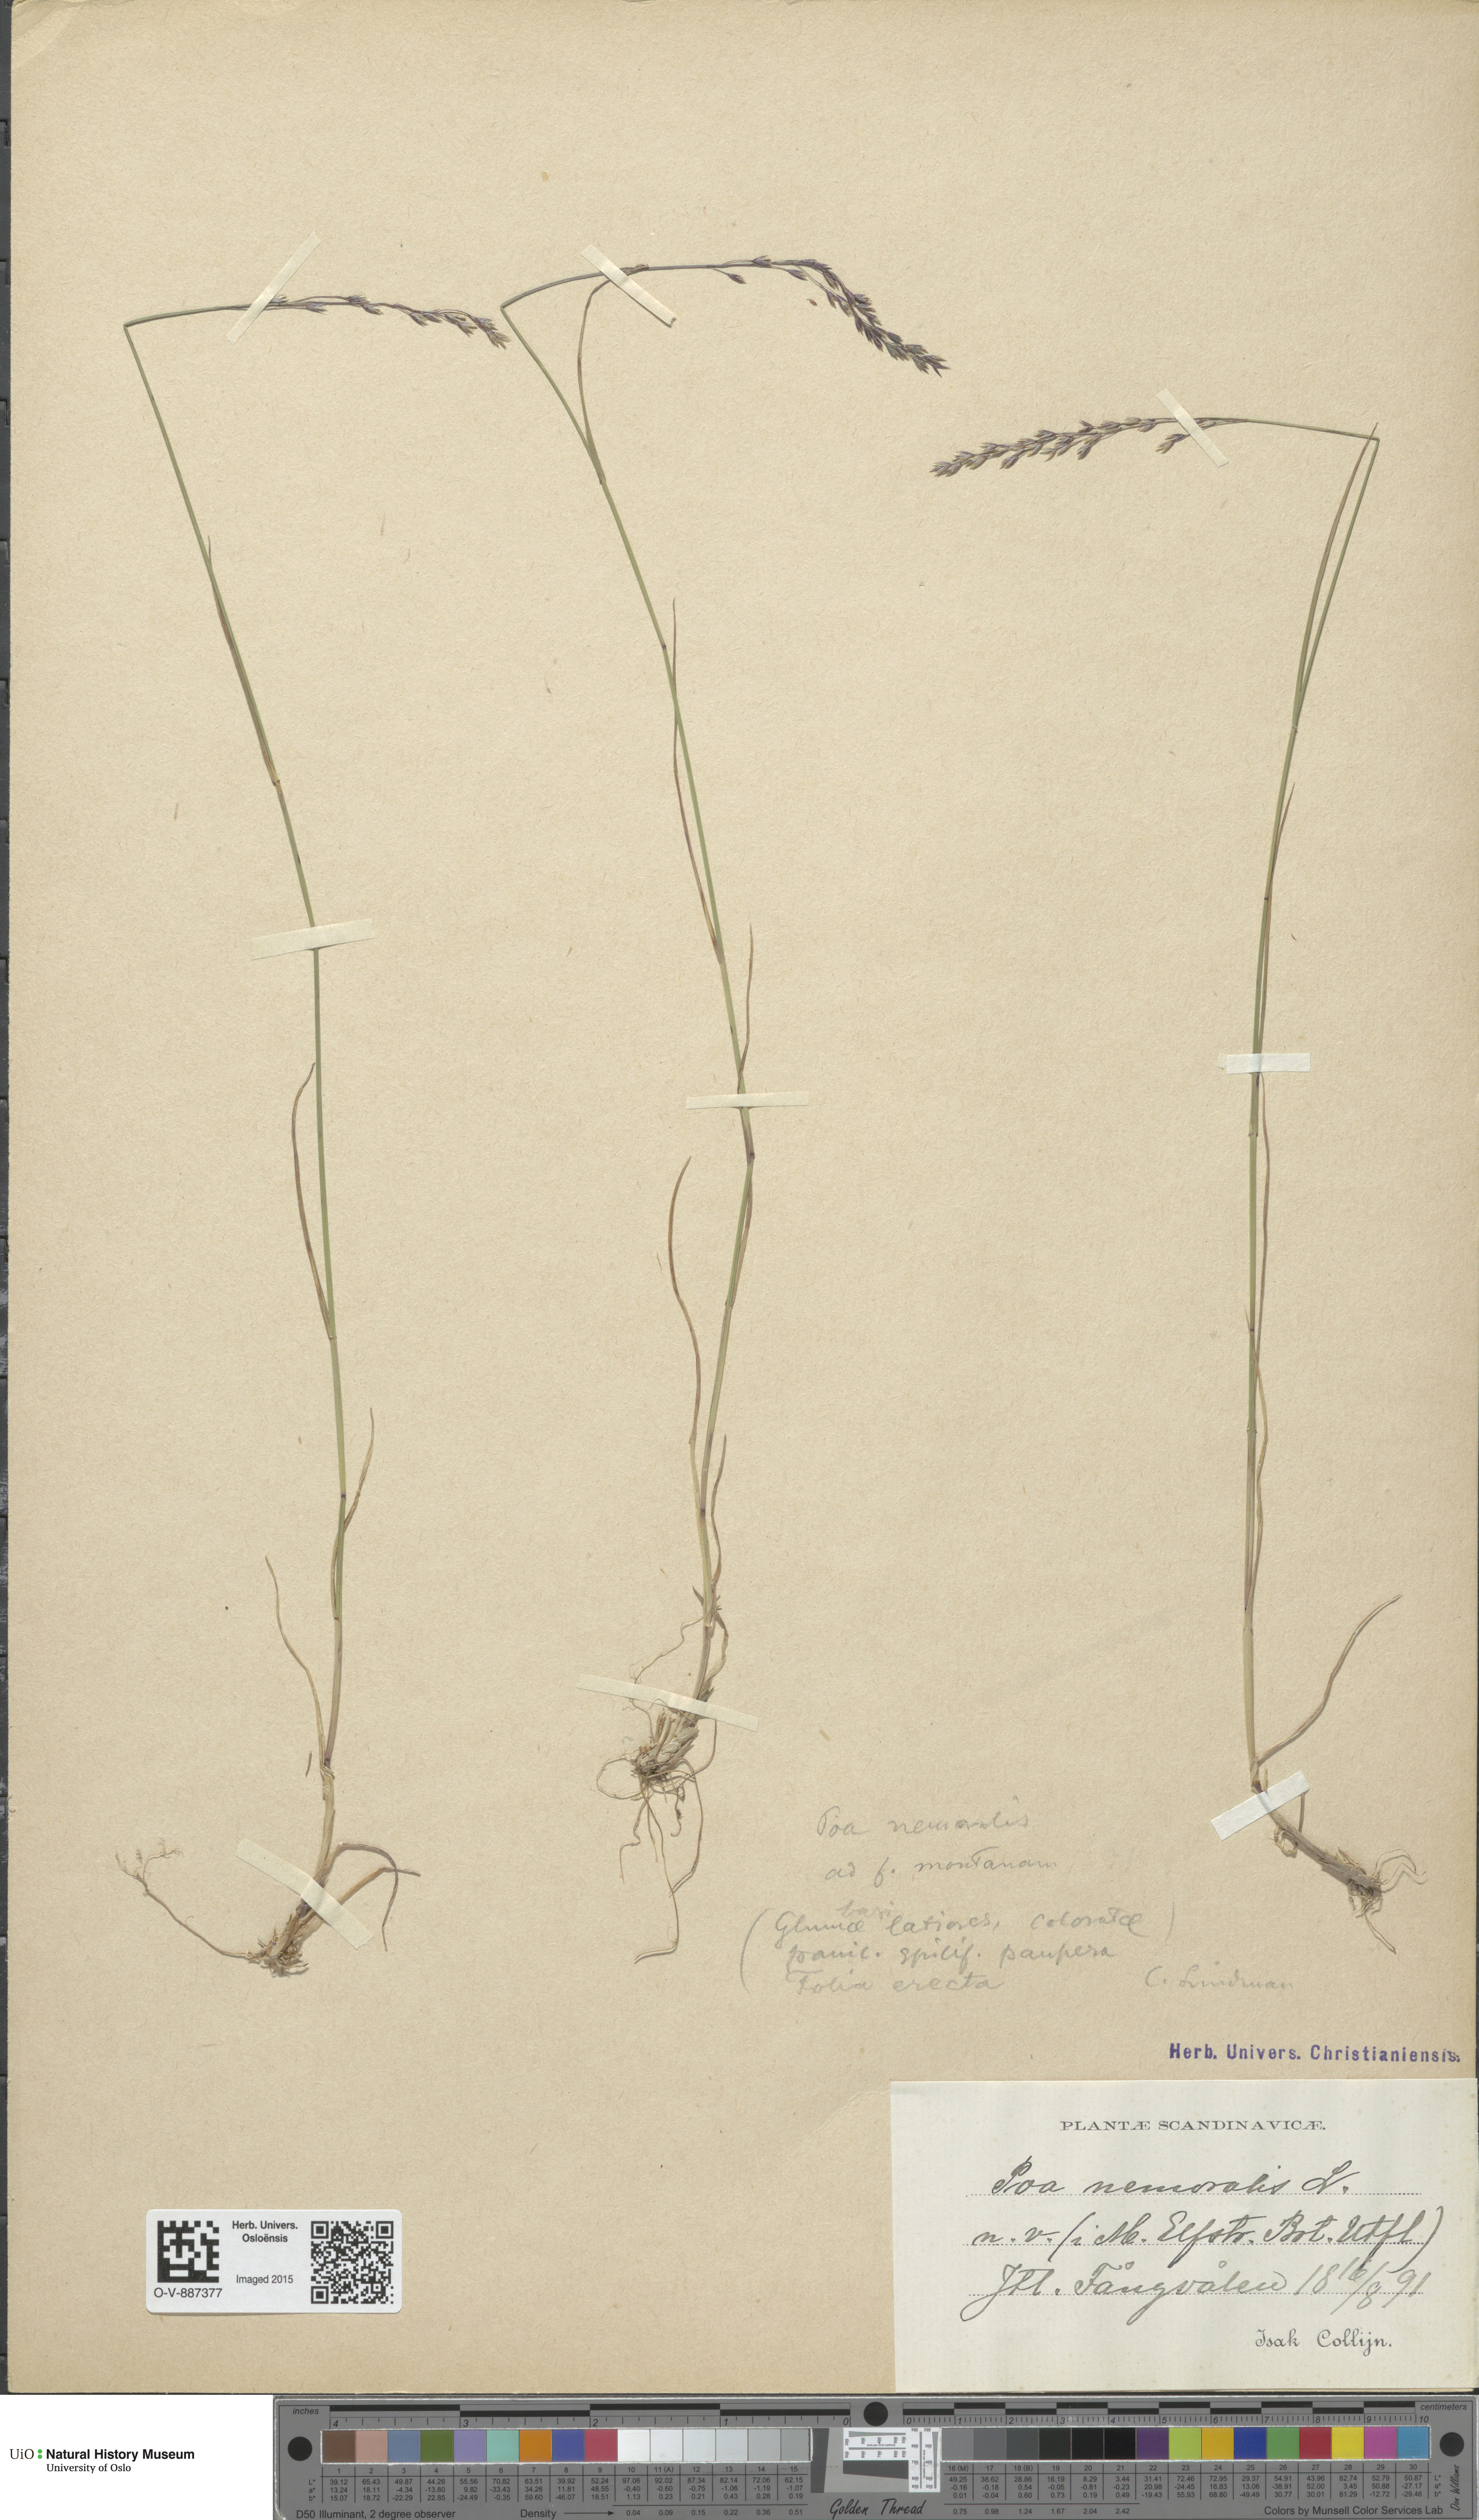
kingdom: Plantae
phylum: Tracheophyta
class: Liliopsida
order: Poales
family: Poaceae
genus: Poa
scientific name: Poa nemoralis
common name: Wood bluegrass
